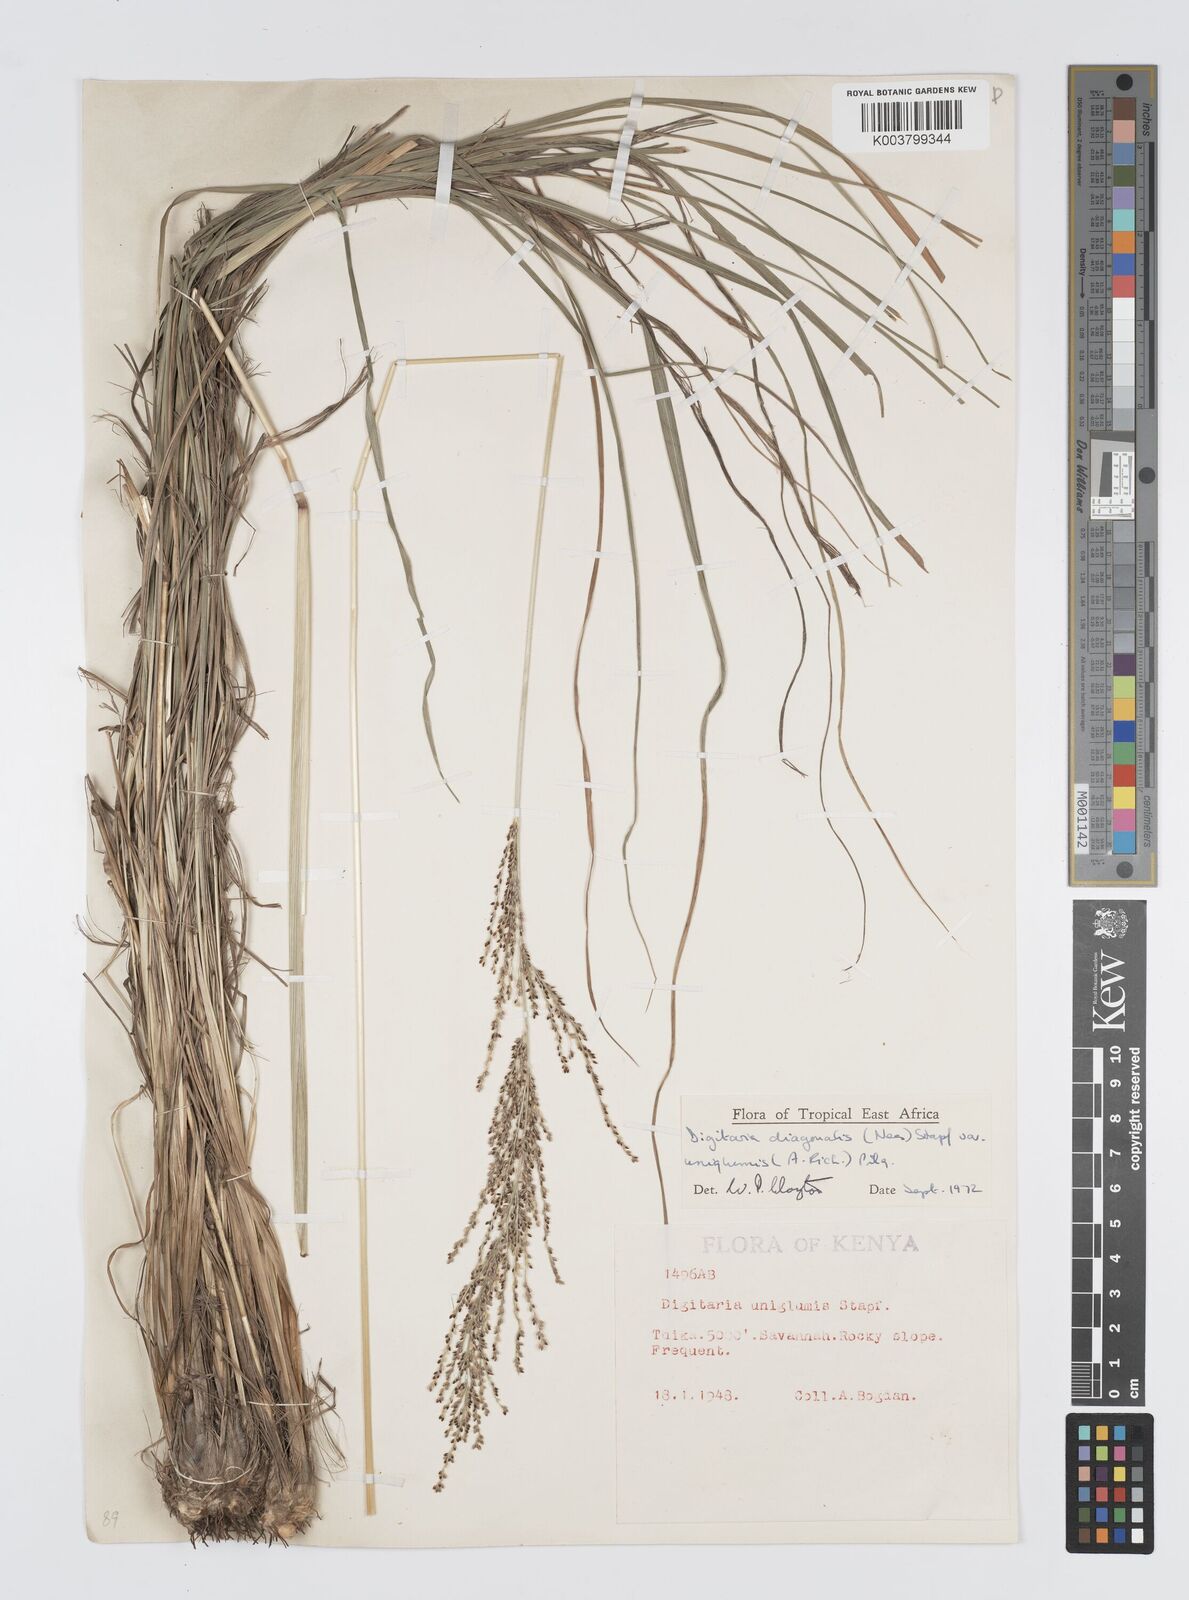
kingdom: Plantae
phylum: Tracheophyta
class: Liliopsida
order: Poales
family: Poaceae
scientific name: Poaceae
